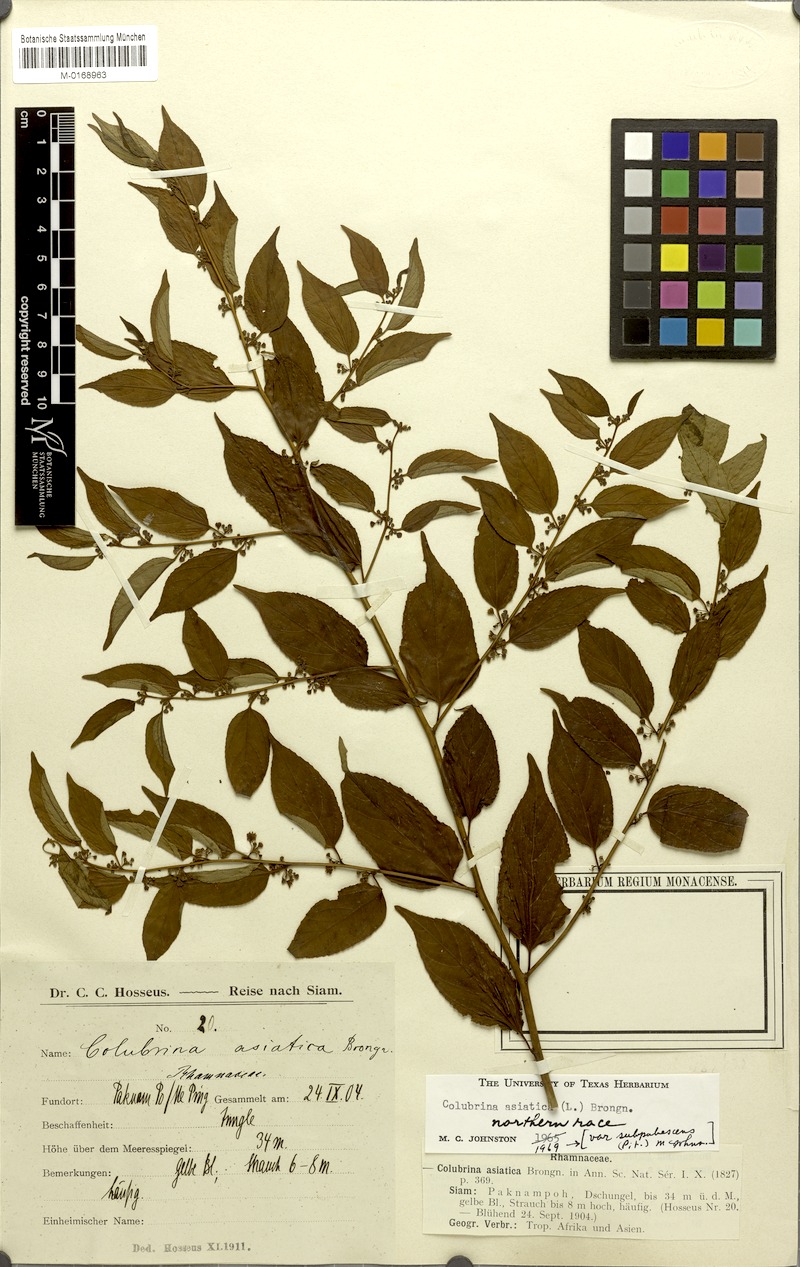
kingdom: Plantae
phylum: Tracheophyta
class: Magnoliopsida
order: Rosales
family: Rhamnaceae
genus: Colubrina
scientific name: Colubrina javanica
